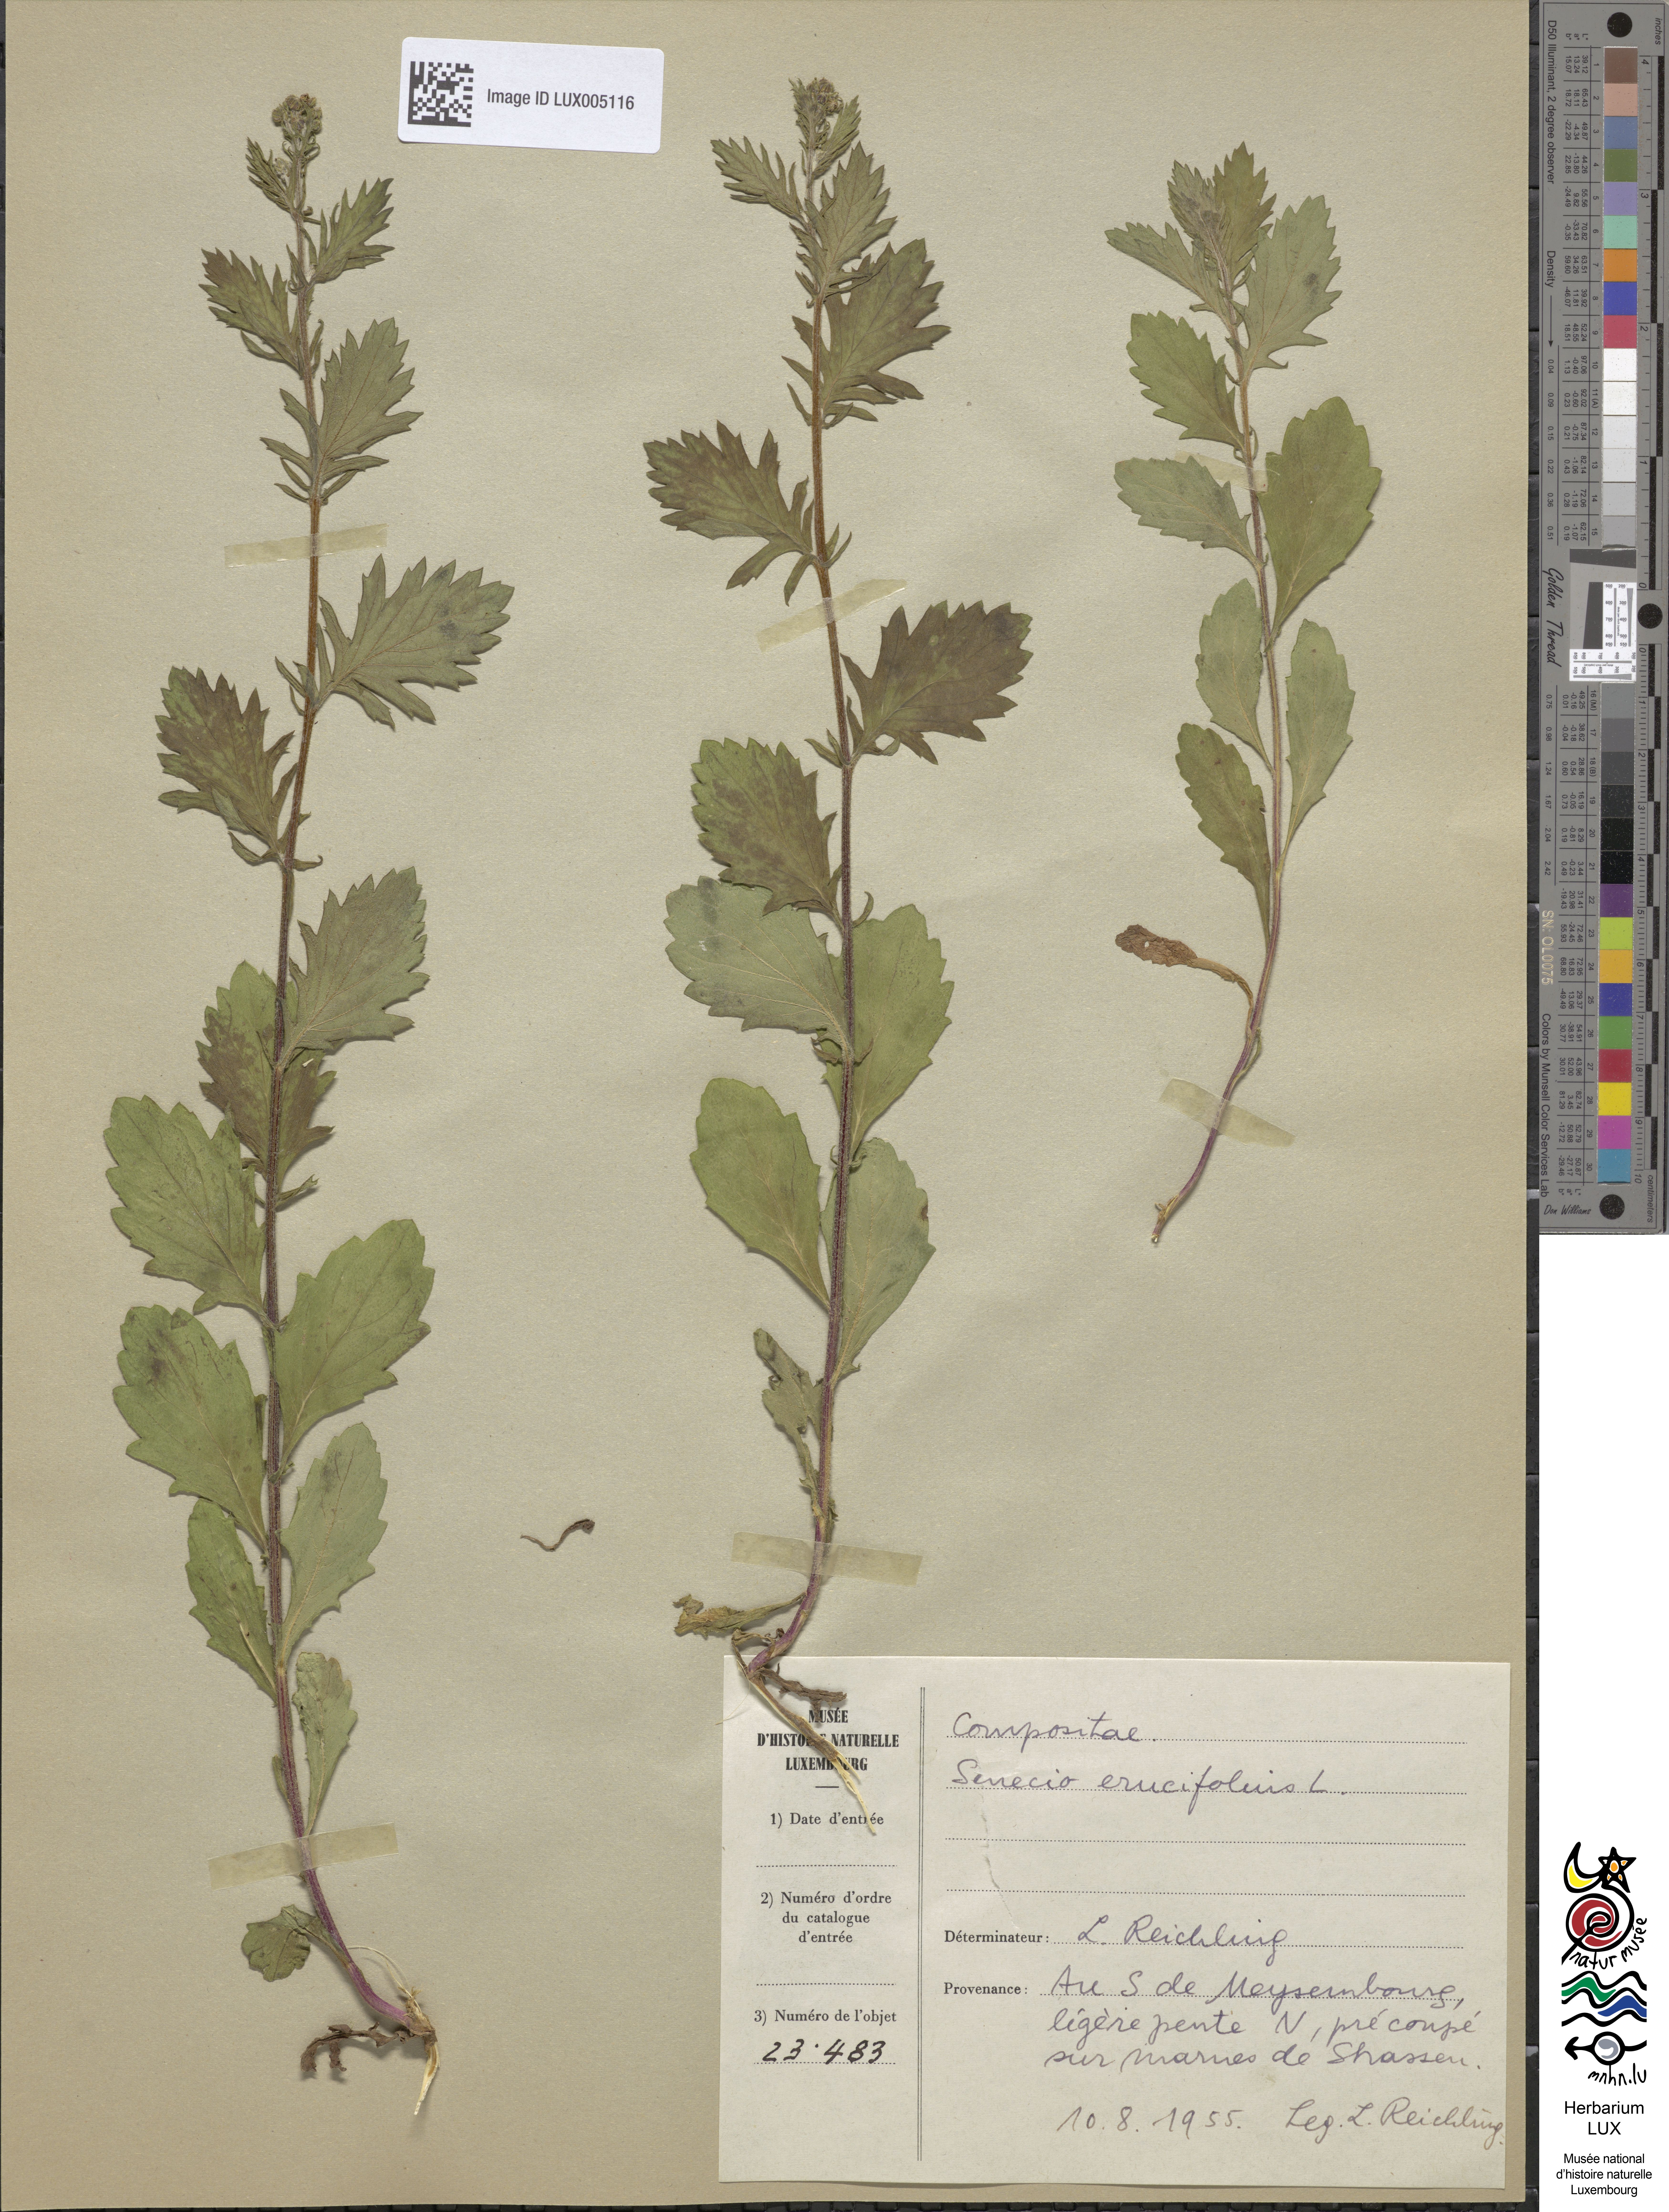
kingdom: Plantae
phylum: Tracheophyta
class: Magnoliopsida
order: Asterales
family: Asteraceae
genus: Jacobaea
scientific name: Jacobaea erucifolia
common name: Hoary ragwort
